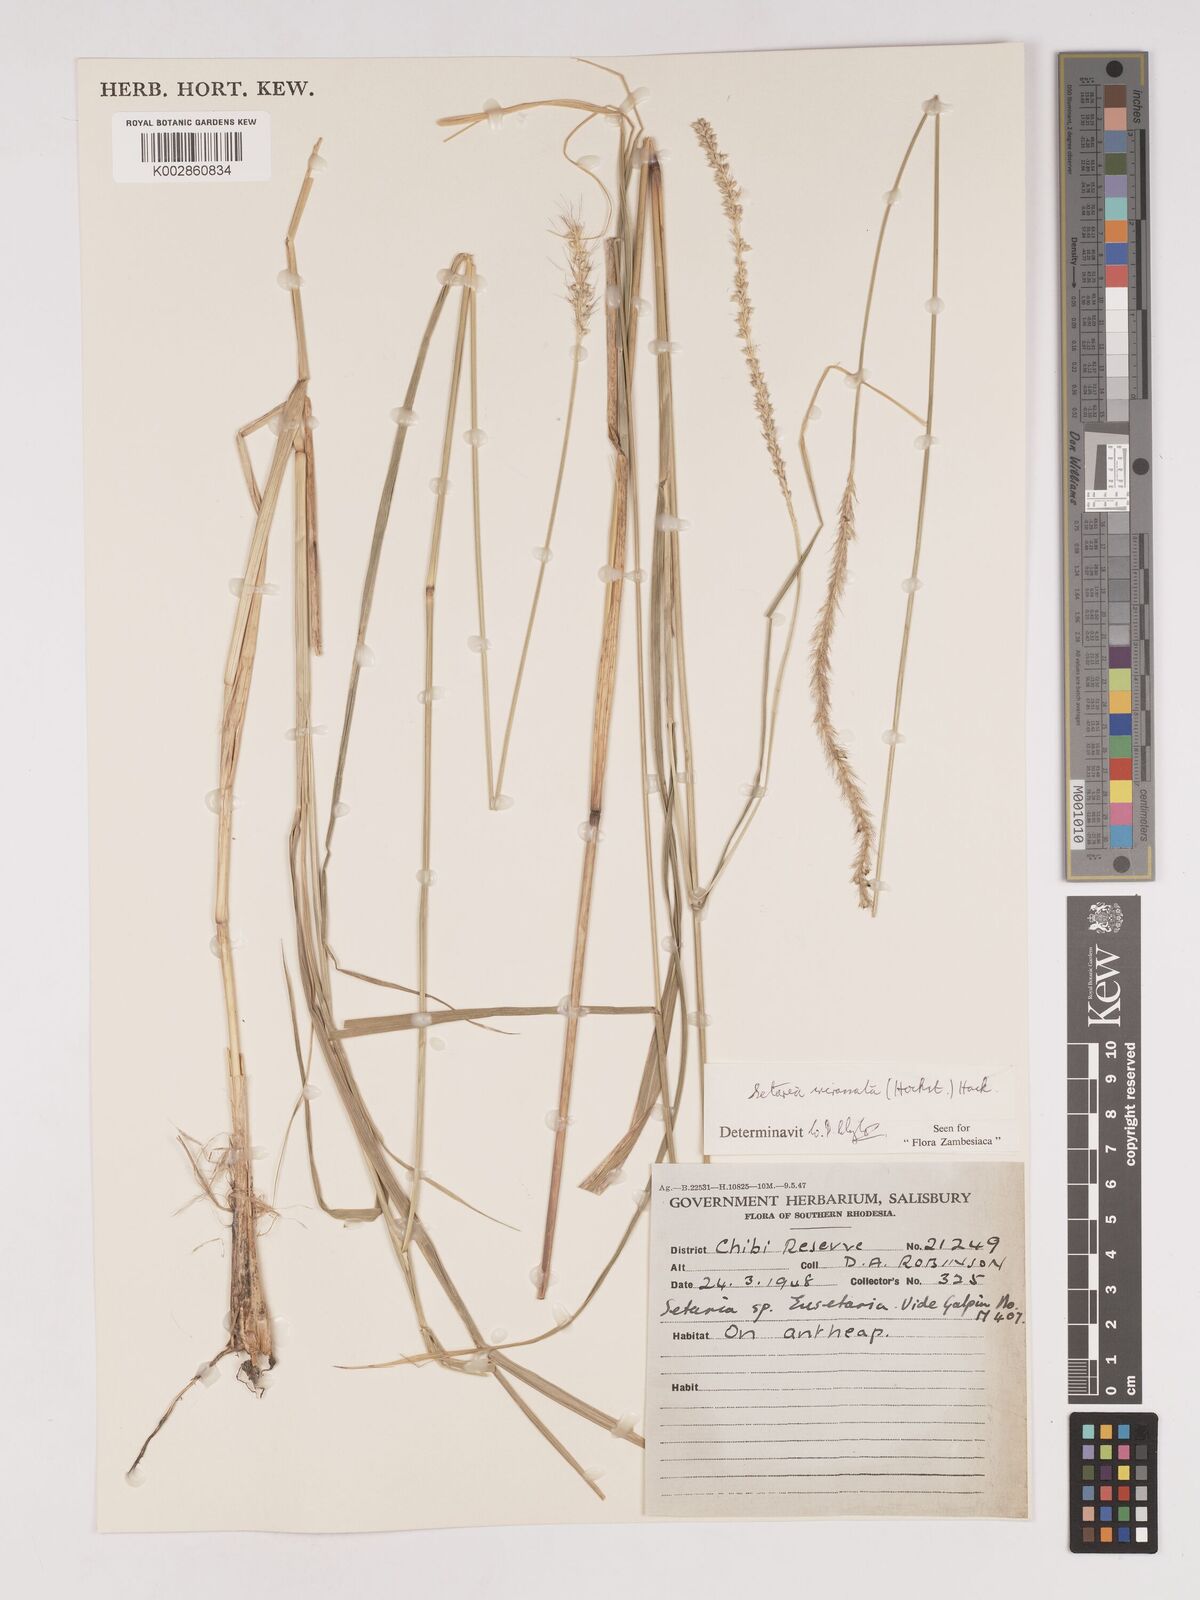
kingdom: Plantae
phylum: Tracheophyta
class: Liliopsida
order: Poales
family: Poaceae
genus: Setaria
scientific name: Setaria incrassata
